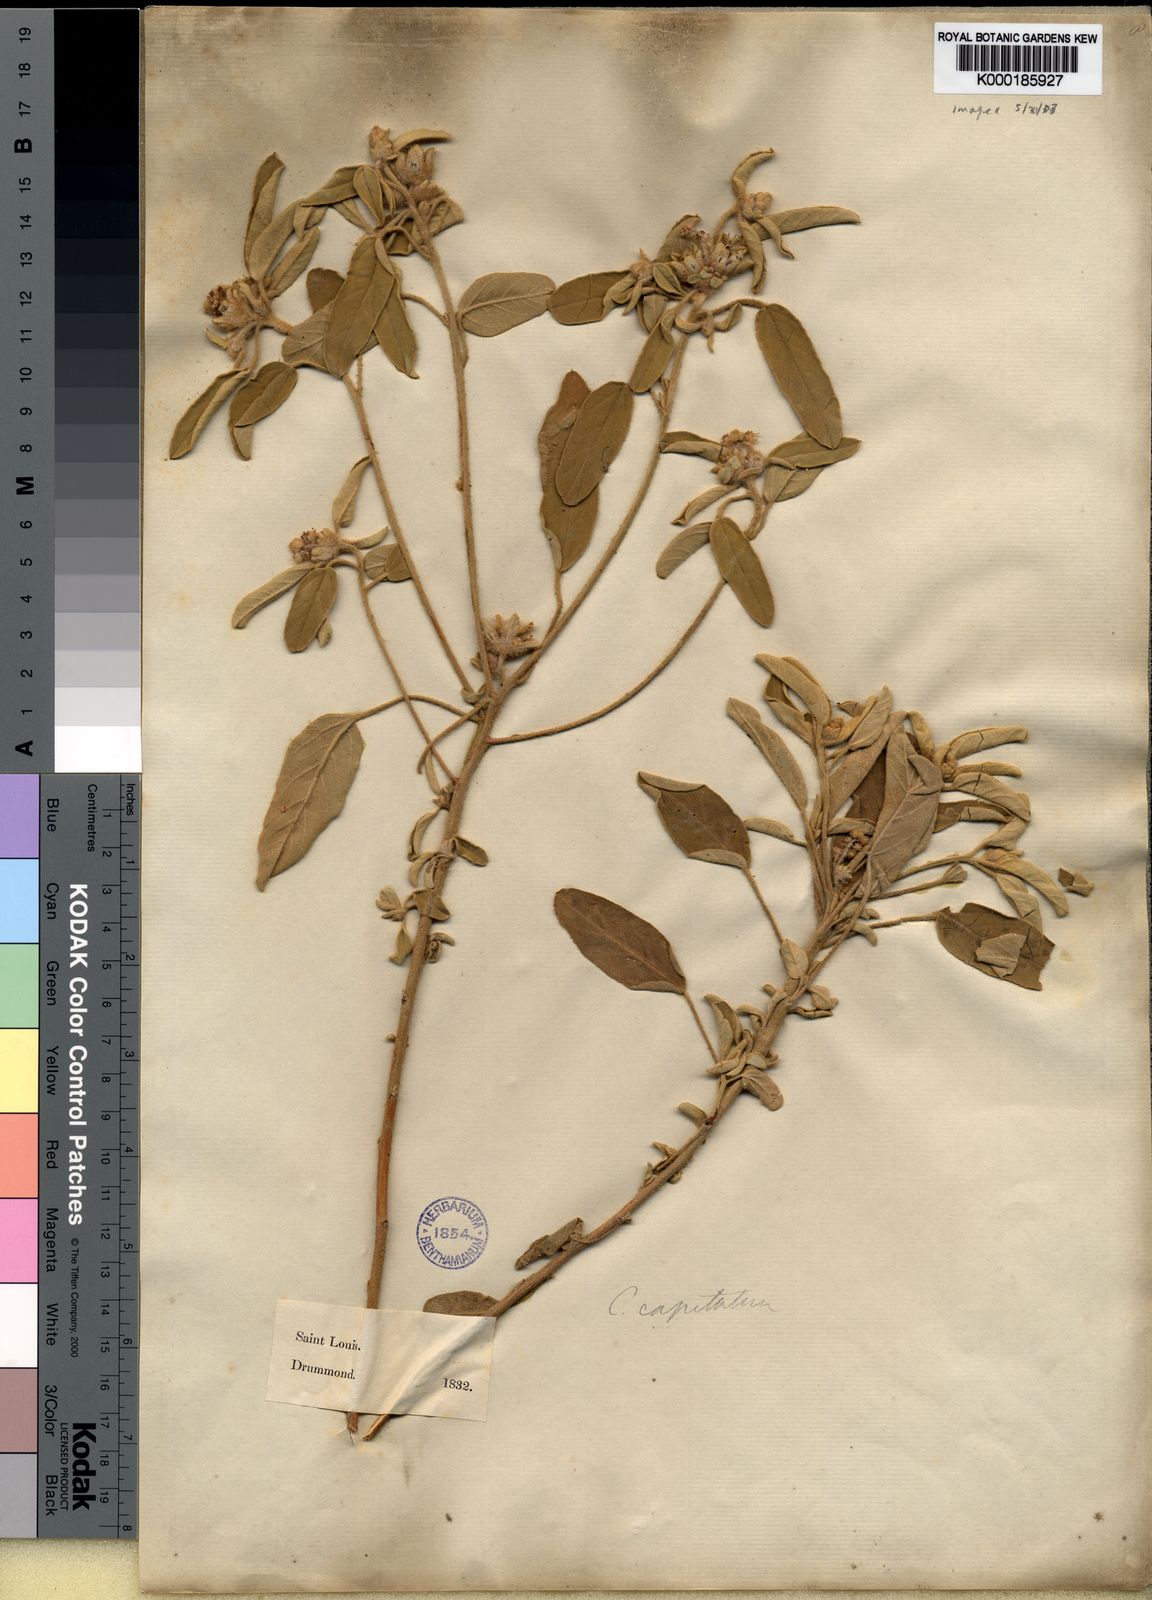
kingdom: Plantae
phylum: Tracheophyta
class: Magnoliopsida
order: Malpighiales
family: Euphorbiaceae
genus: Croton
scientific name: Croton capitatus
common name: Woolly croton
